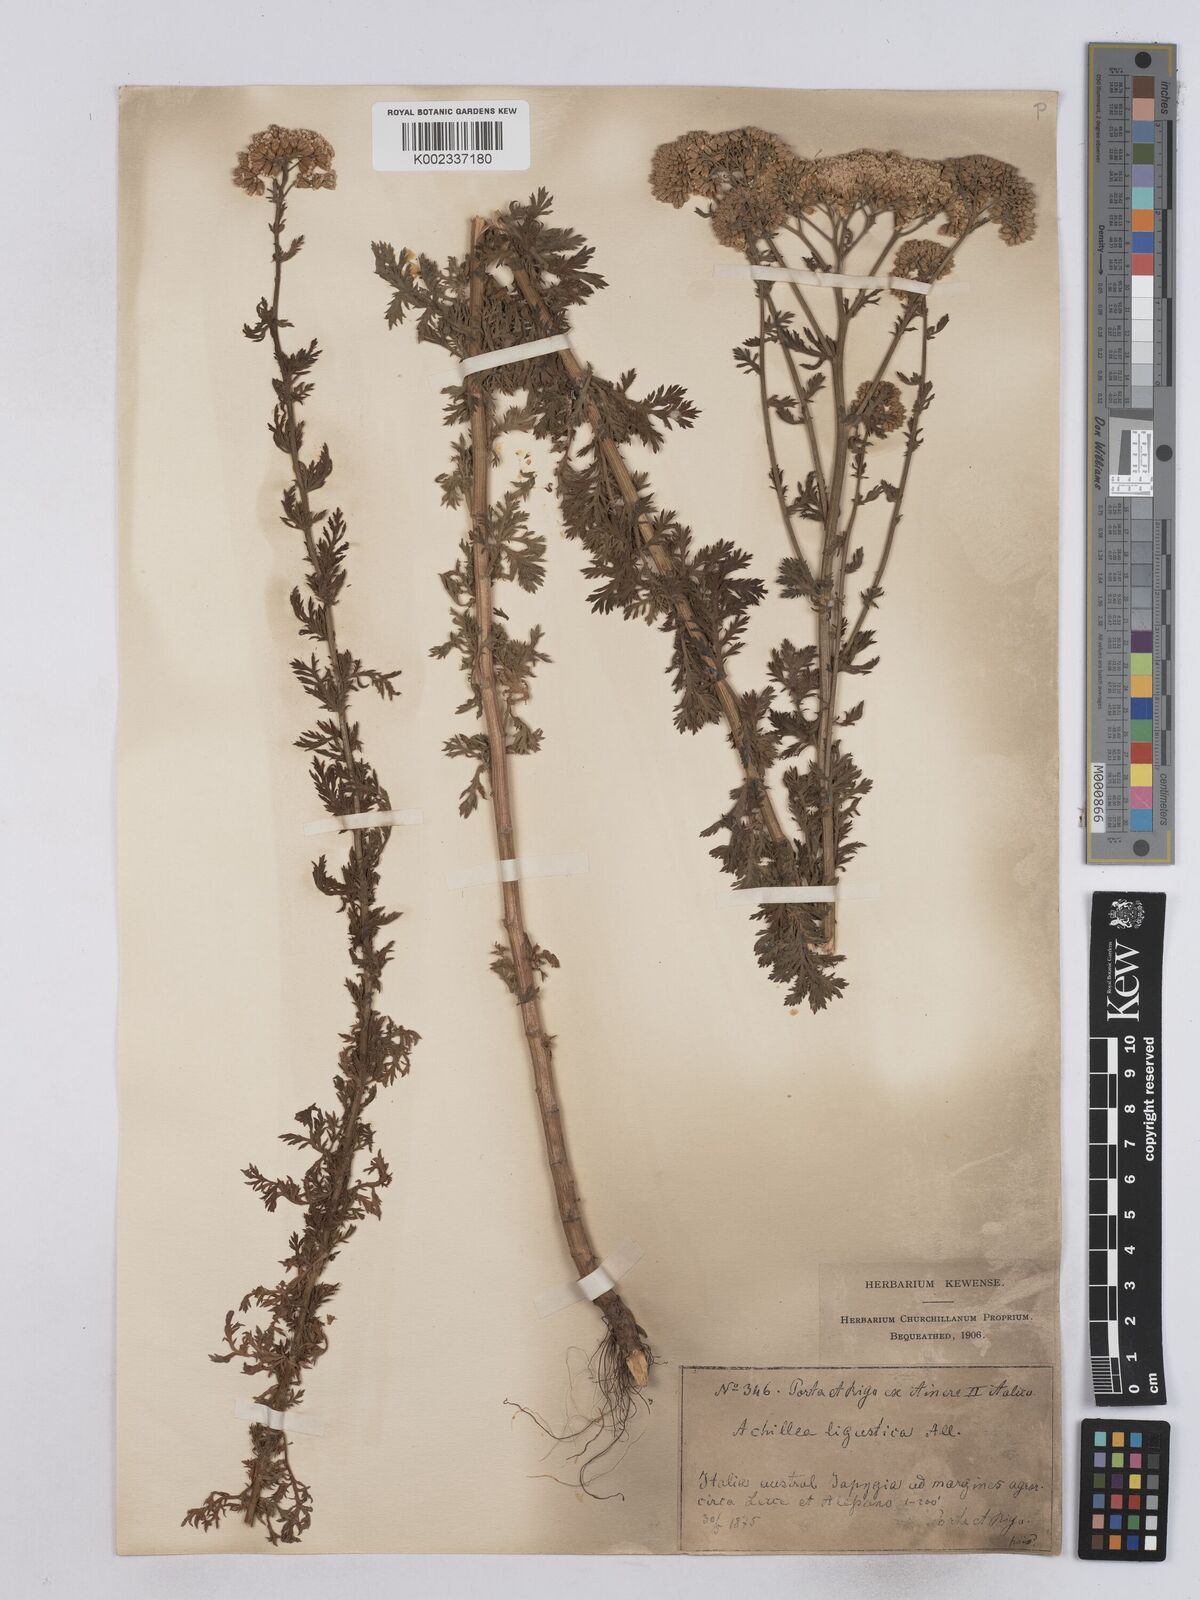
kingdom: Plantae
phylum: Tracheophyta
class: Magnoliopsida
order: Asterales
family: Asteraceae
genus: Achillea
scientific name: Achillea ligustica
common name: Southern yarrow
